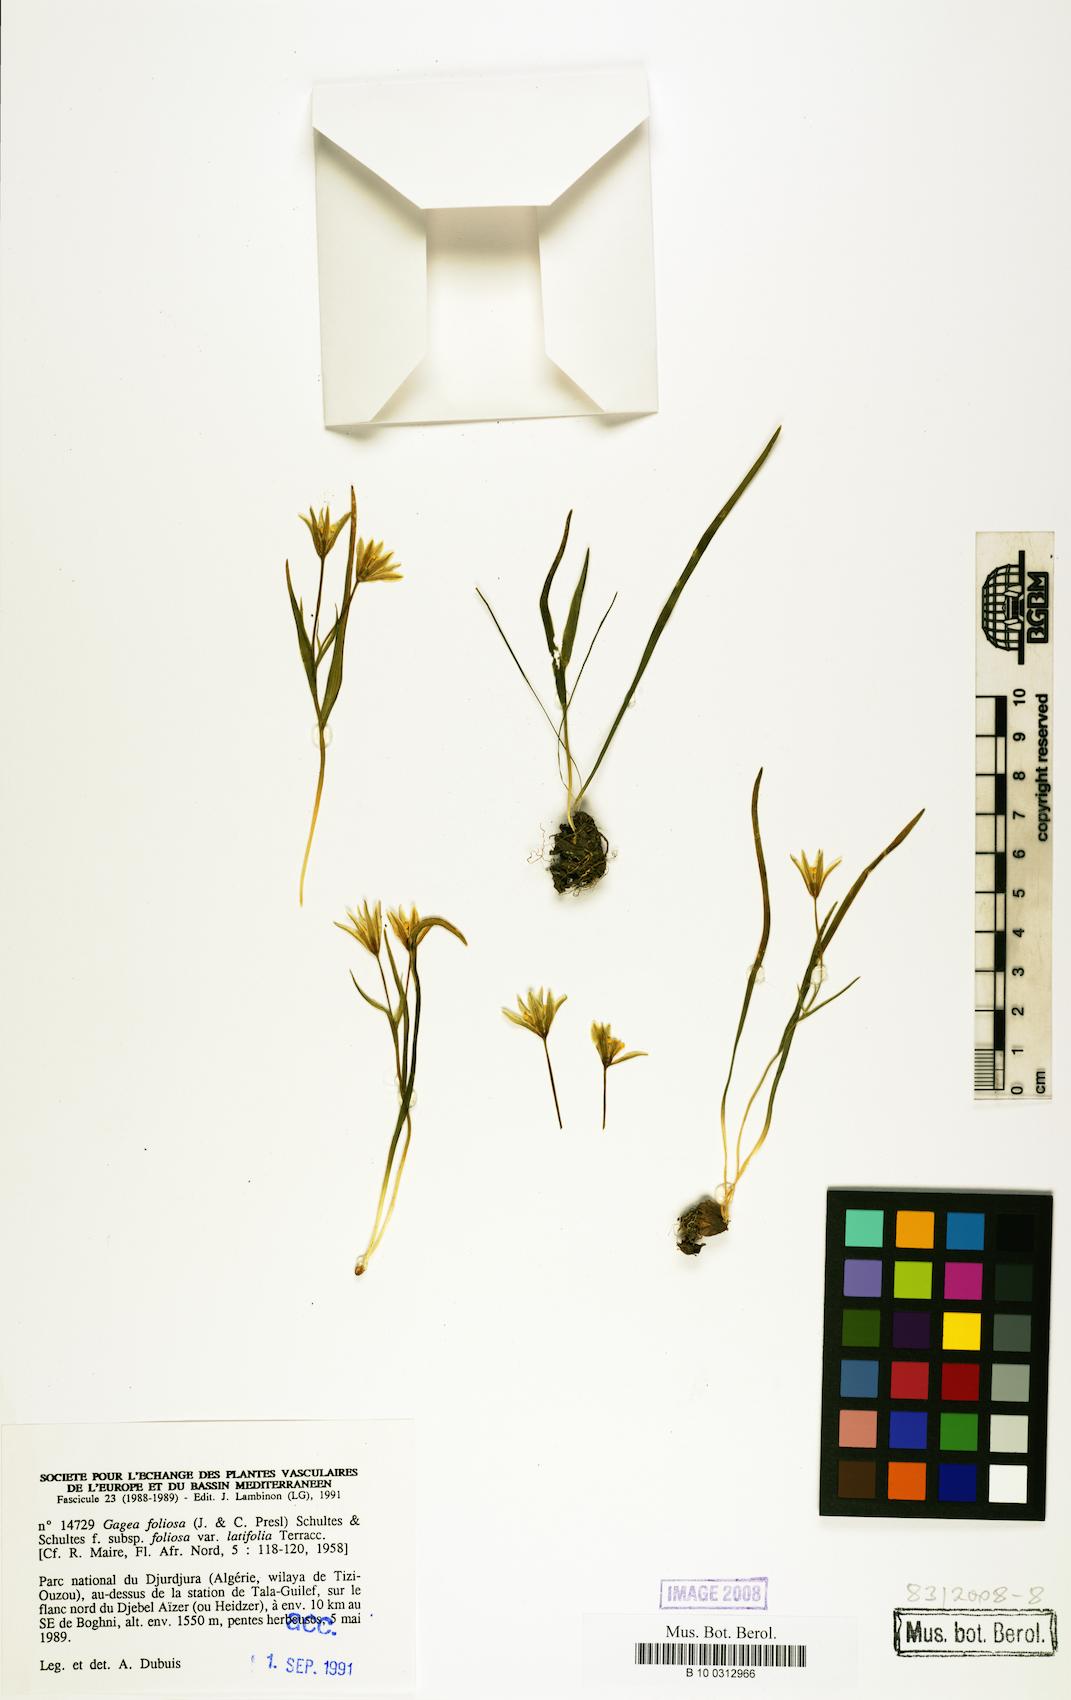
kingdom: Plantae
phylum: Tracheophyta
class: Liliopsida
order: Liliales
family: Liliaceae
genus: Gagea
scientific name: Gagea foliosa
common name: Leafy gagea
